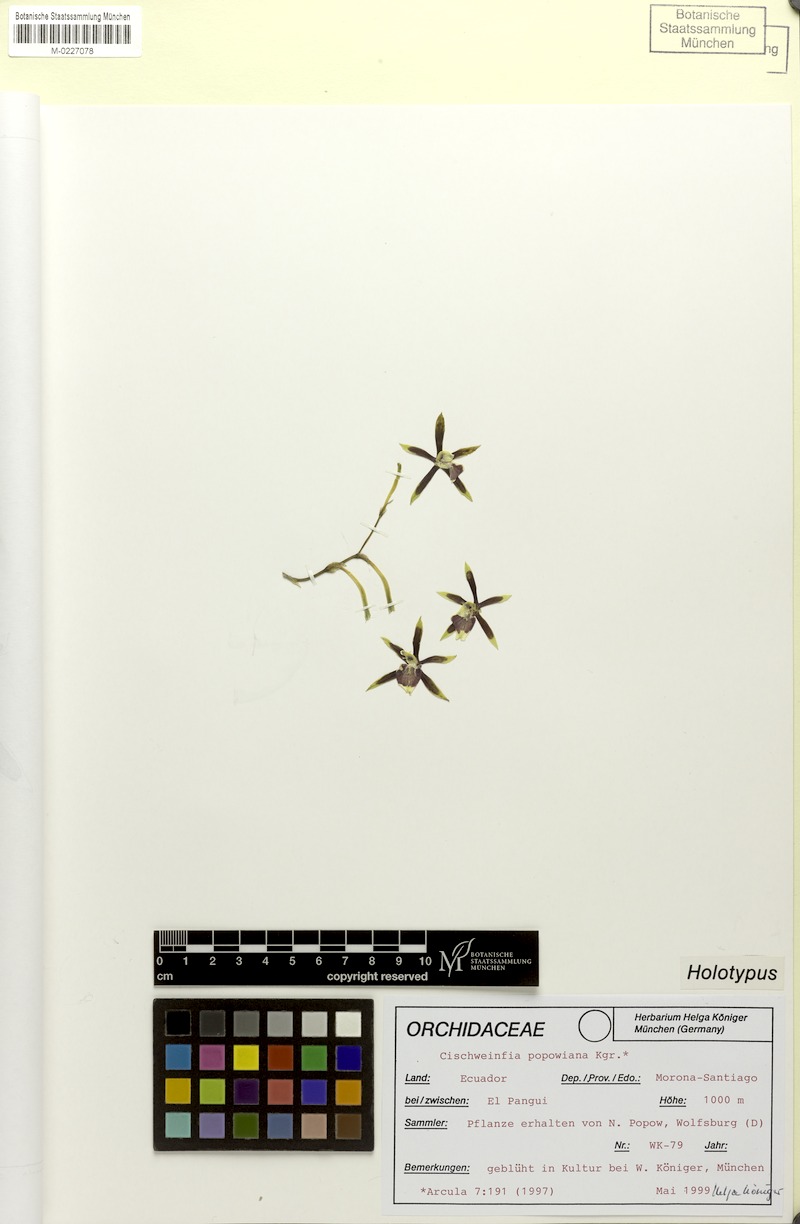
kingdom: Plantae
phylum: Tracheophyta
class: Liliopsida
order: Asparagales
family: Orchidaceae
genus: Cischweinfia
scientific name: Cischweinfia popowiana
